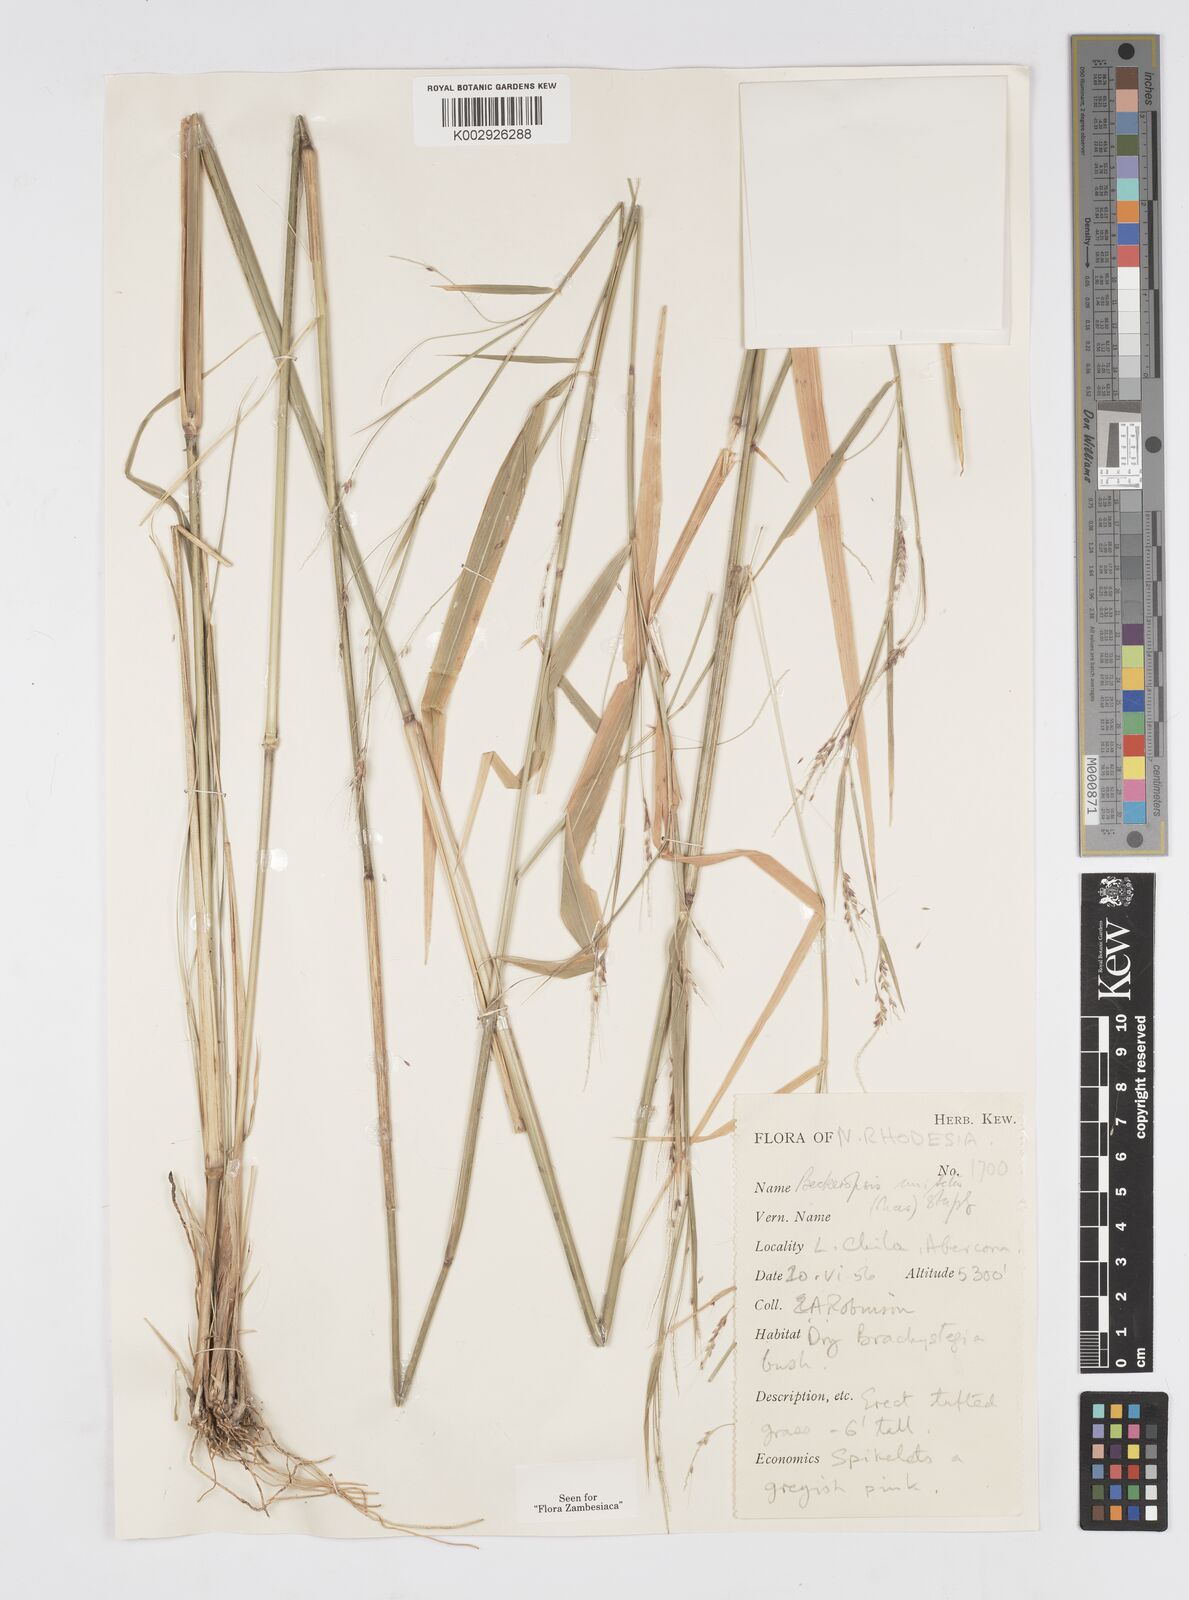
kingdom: Plantae
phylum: Tracheophyta
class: Liliopsida
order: Poales
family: Poaceae
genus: Cenchrus
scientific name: Cenchrus unisetus
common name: Natal grass
